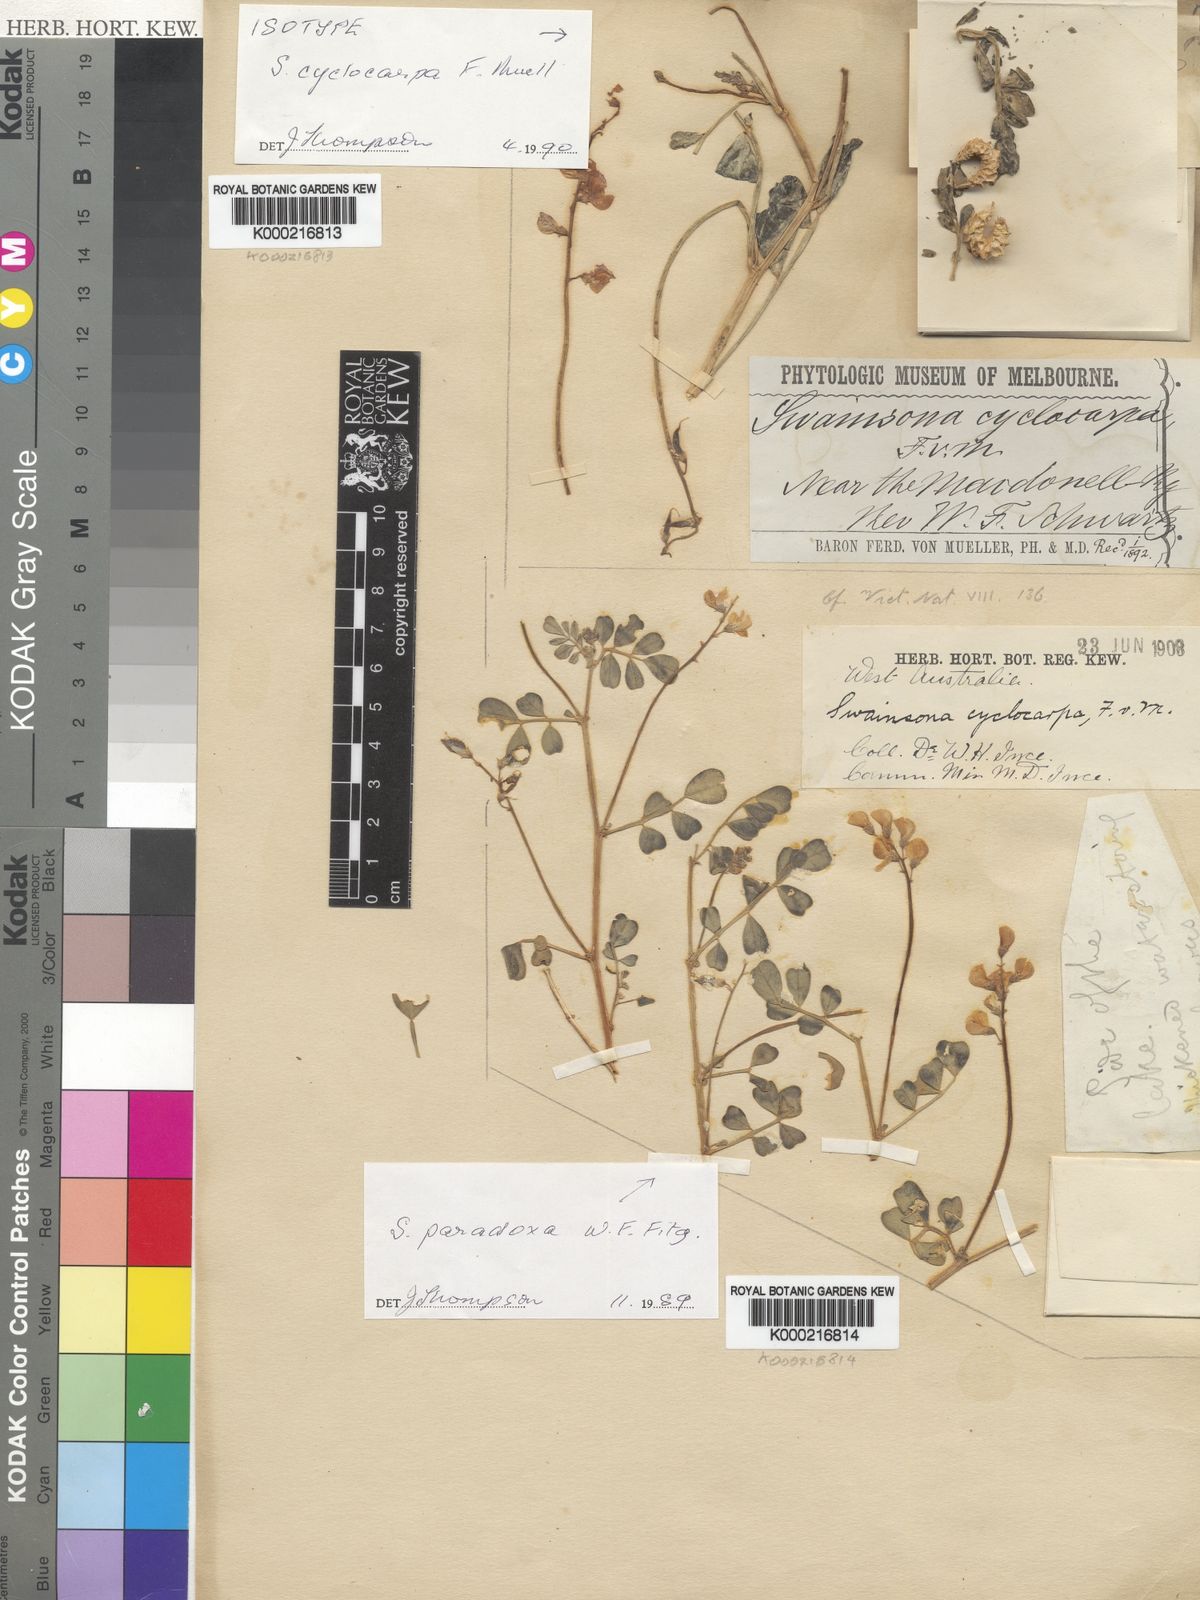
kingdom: Plantae
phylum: Tracheophyta
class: Magnoliopsida
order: Fabales
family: Fabaceae
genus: Swainsona
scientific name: Swainsona cyclocarpa
